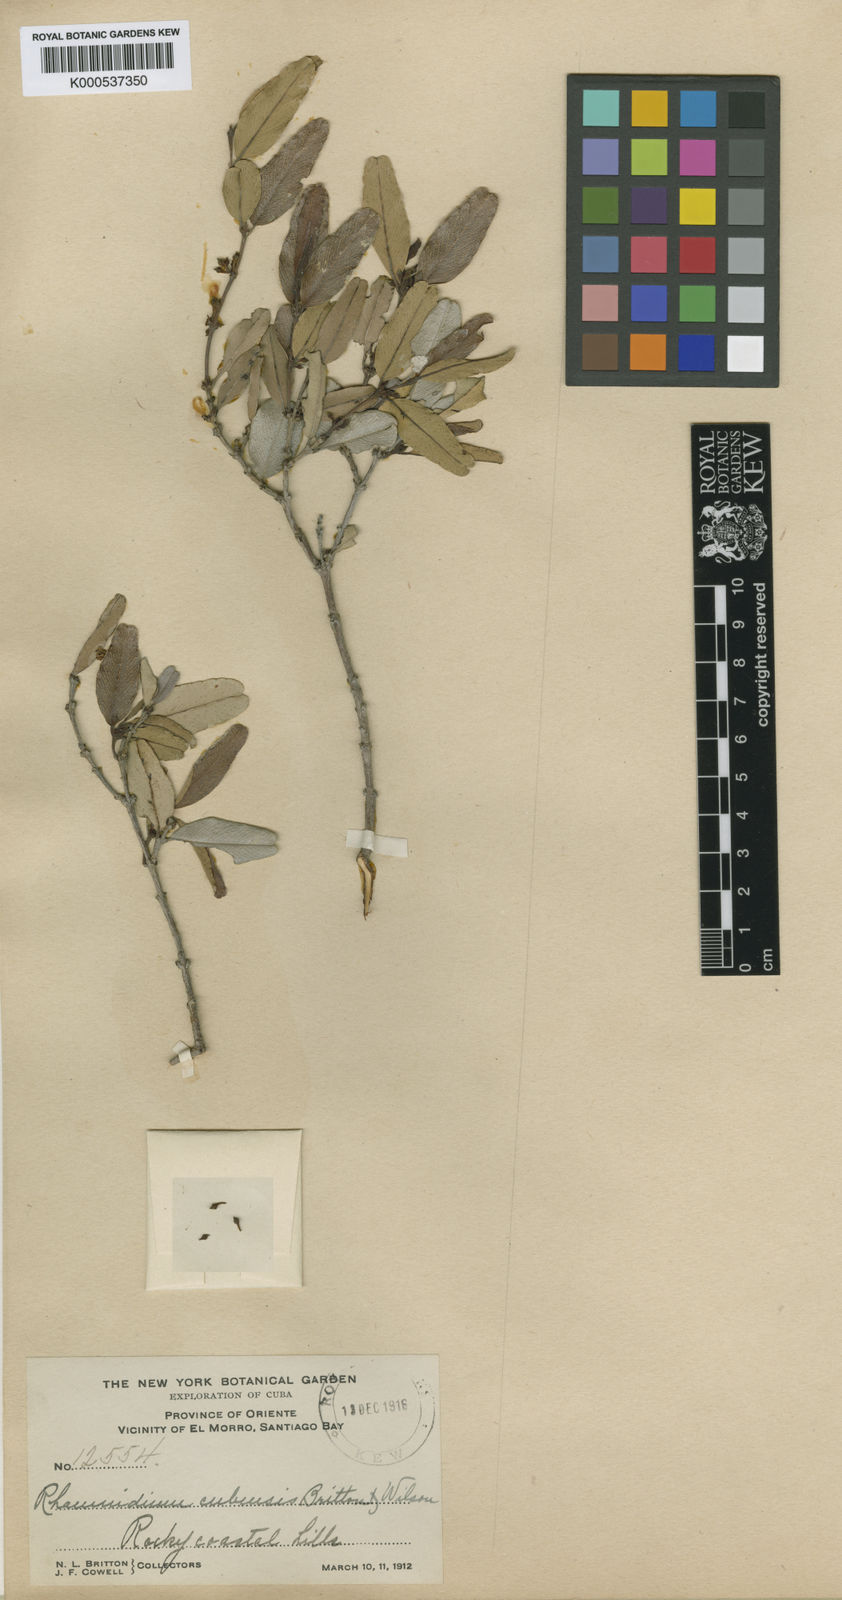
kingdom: Plantae
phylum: Tracheophyta
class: Magnoliopsida
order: Rosales
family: Rhamnaceae
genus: Auerodendron
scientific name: Auerodendron cubense
